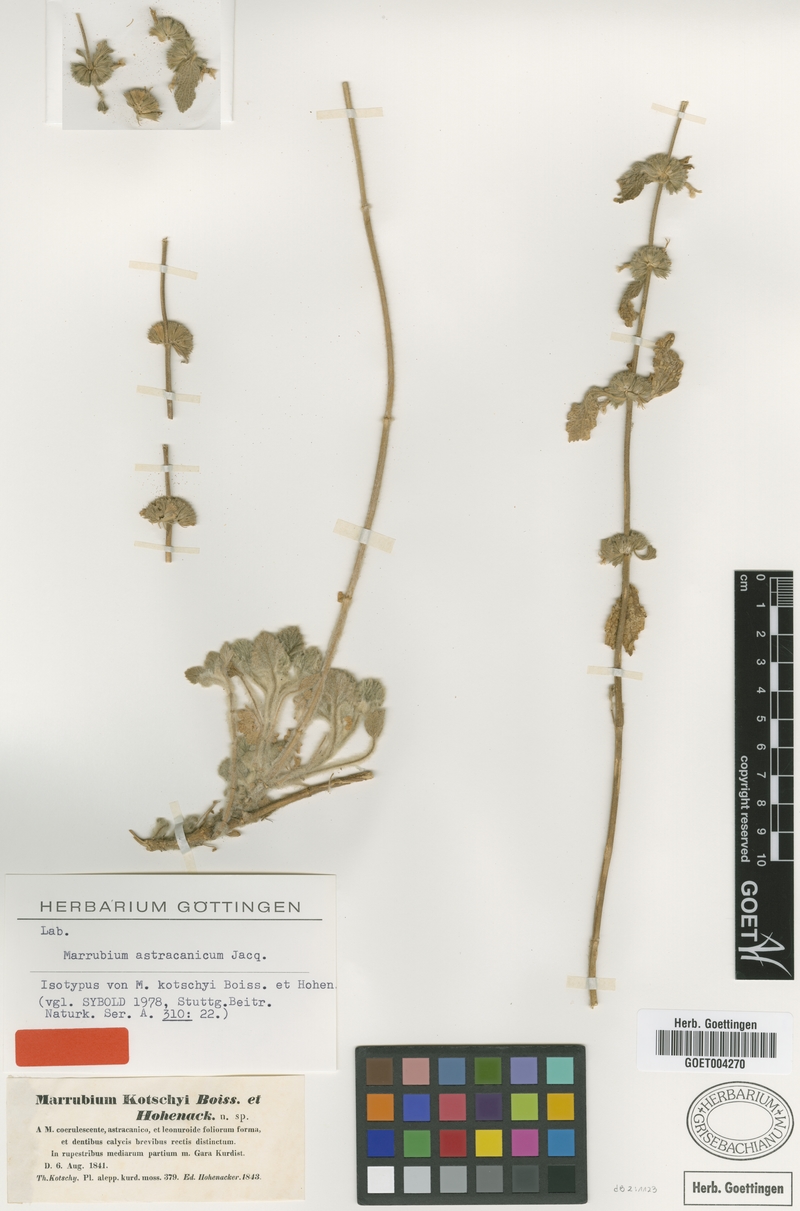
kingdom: Plantae
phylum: Tracheophyta
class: Magnoliopsida
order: Lamiales
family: Lamiaceae
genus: Marrubium
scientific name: Marrubium astracanicum
